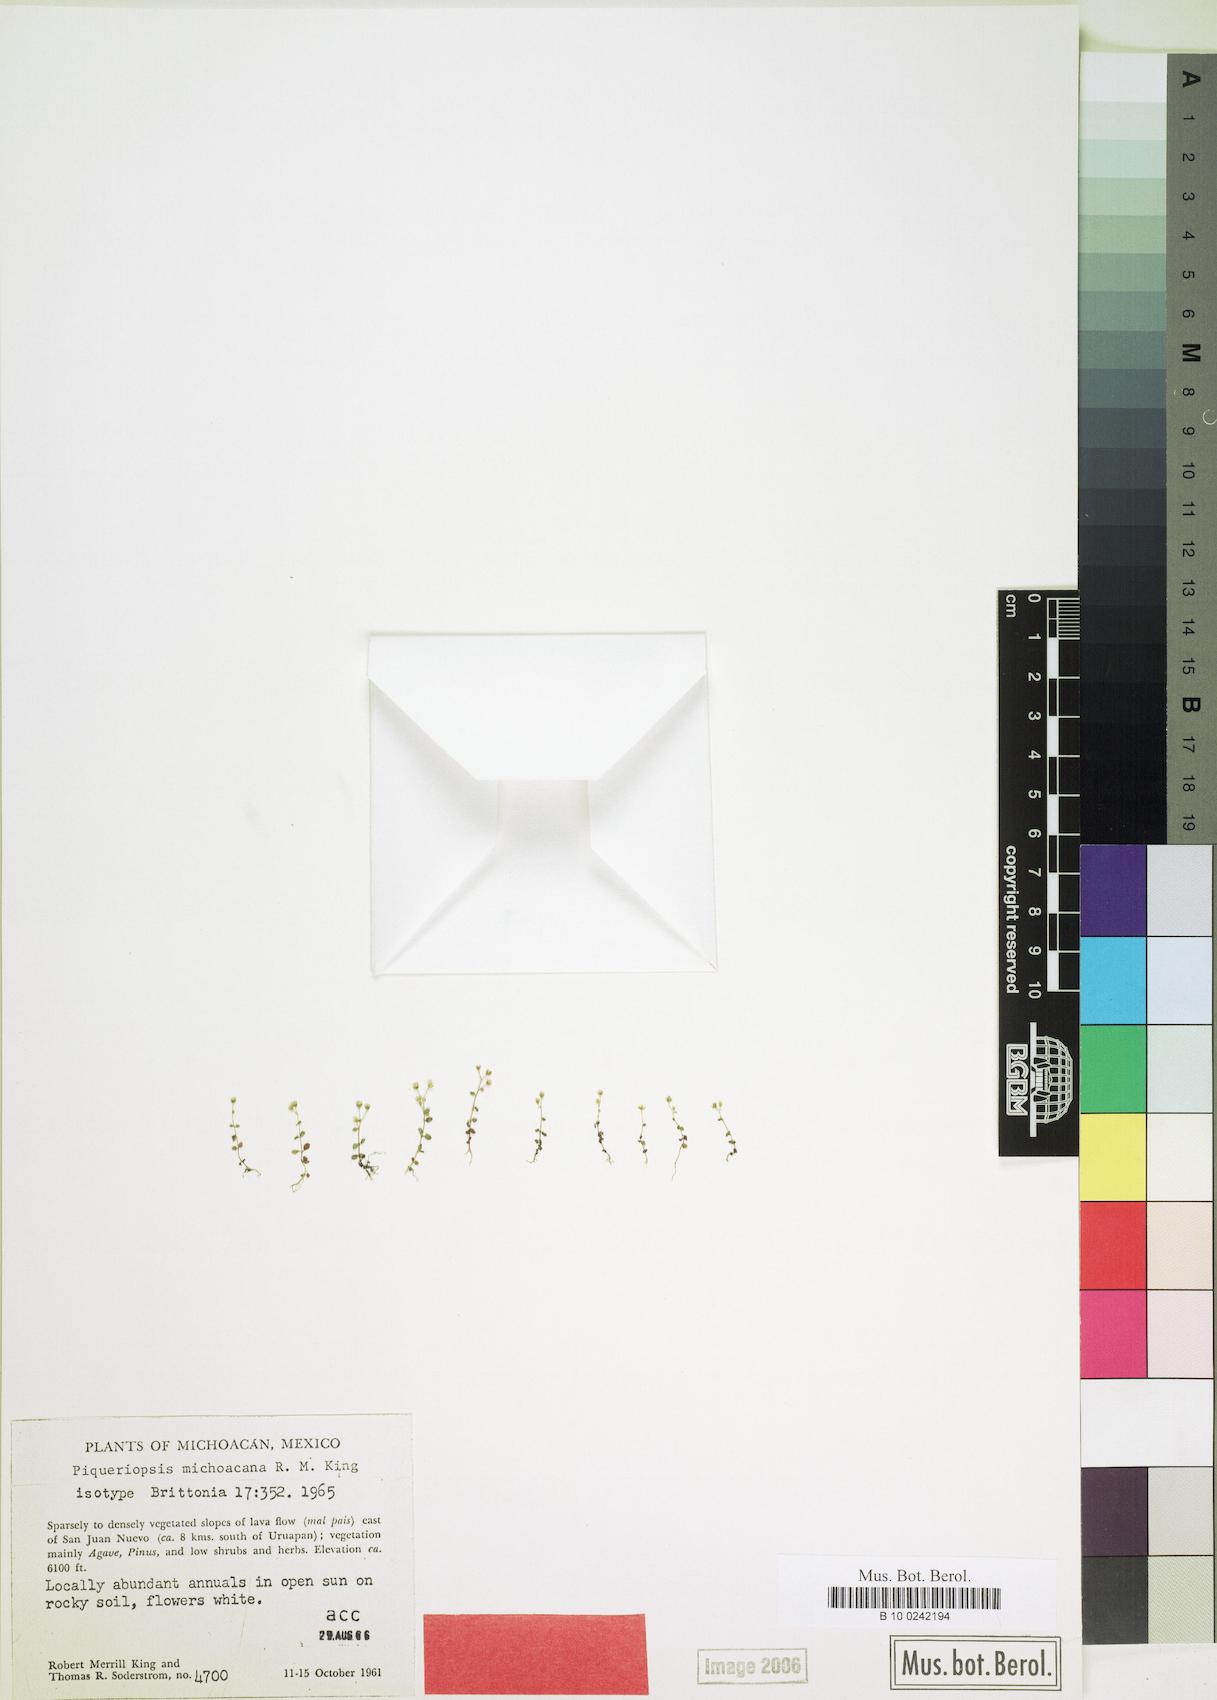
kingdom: Plantae
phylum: Tracheophyta
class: Magnoliopsida
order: Asterales
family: Asteraceae
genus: Microspermum
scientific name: Microspermum michoacanum
